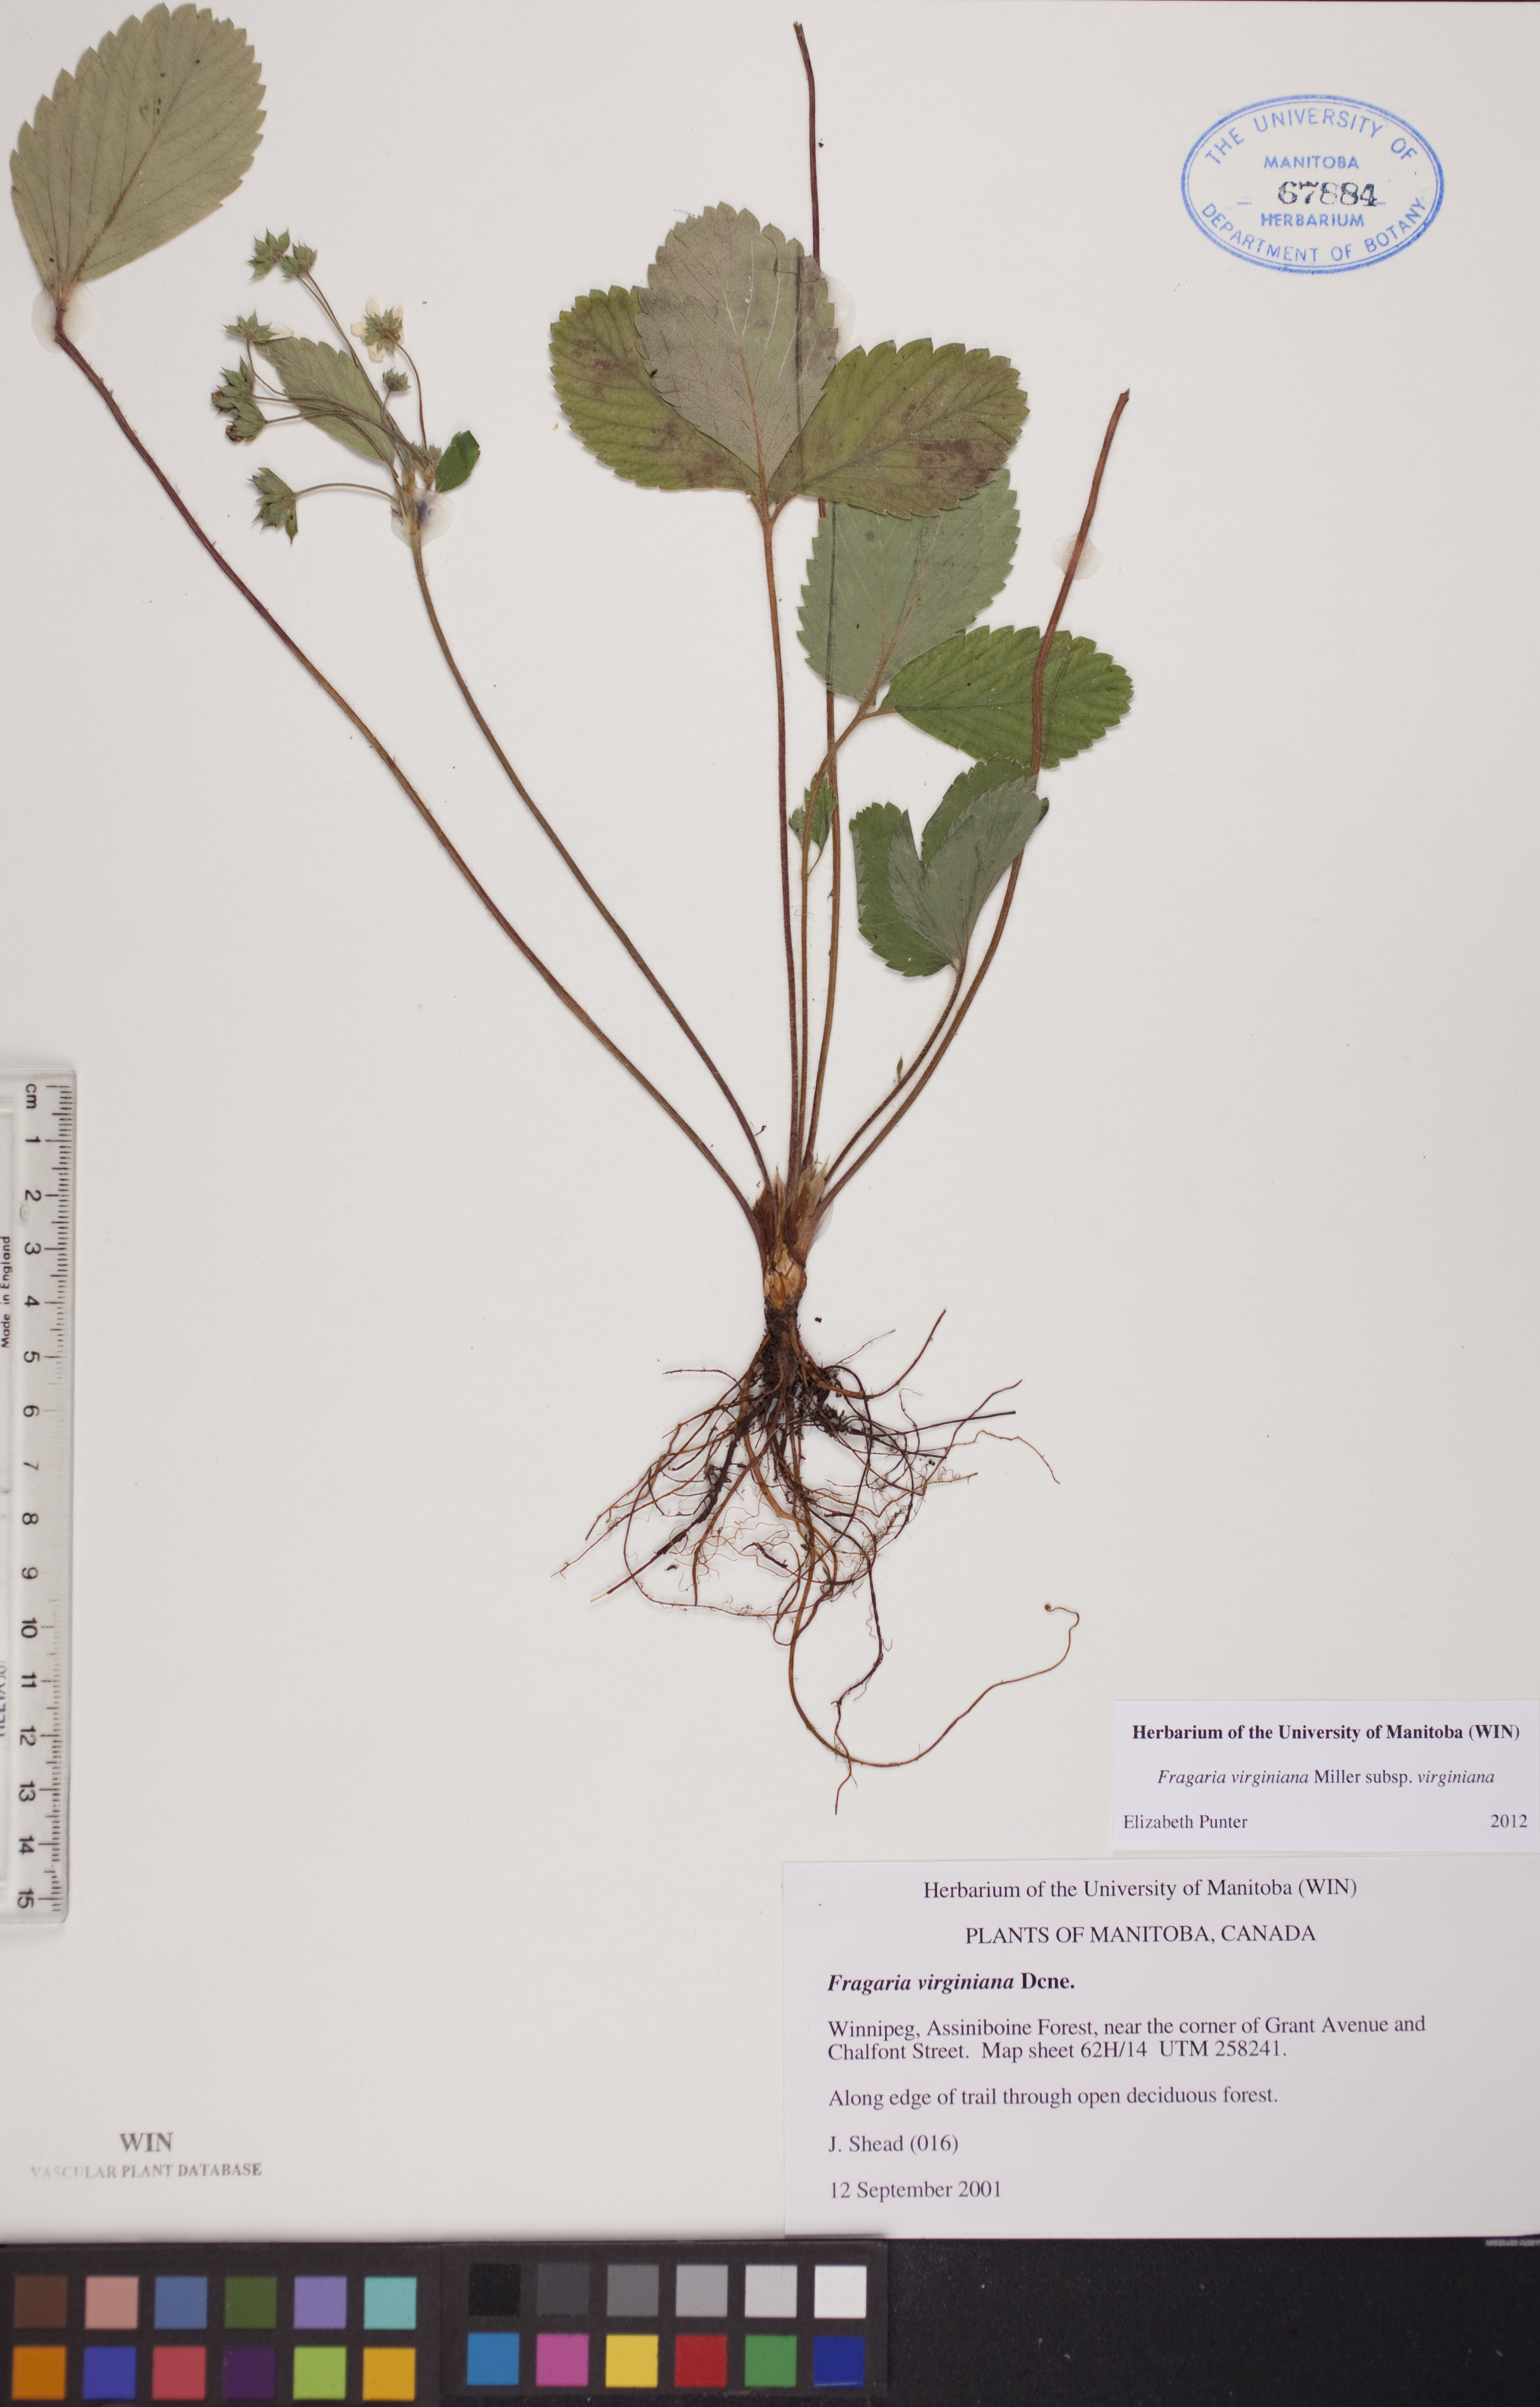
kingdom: Plantae
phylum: Tracheophyta
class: Magnoliopsida
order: Rosales
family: Rosaceae
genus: Fragaria
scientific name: Fragaria virginiana
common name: Thickleaved wild strawberry
